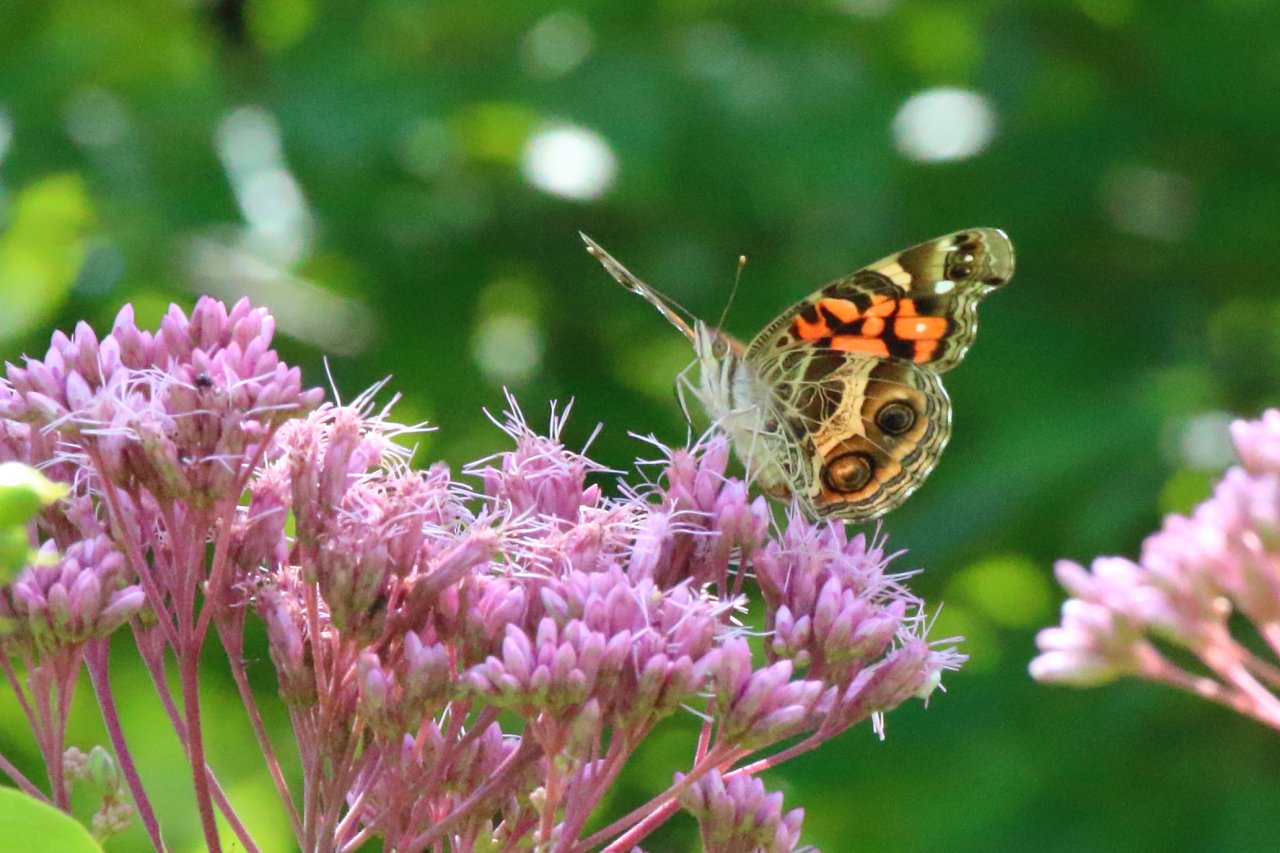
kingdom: Animalia
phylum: Arthropoda
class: Insecta
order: Lepidoptera
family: Nymphalidae
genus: Vanessa
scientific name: Vanessa virginiensis
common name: American Lady
